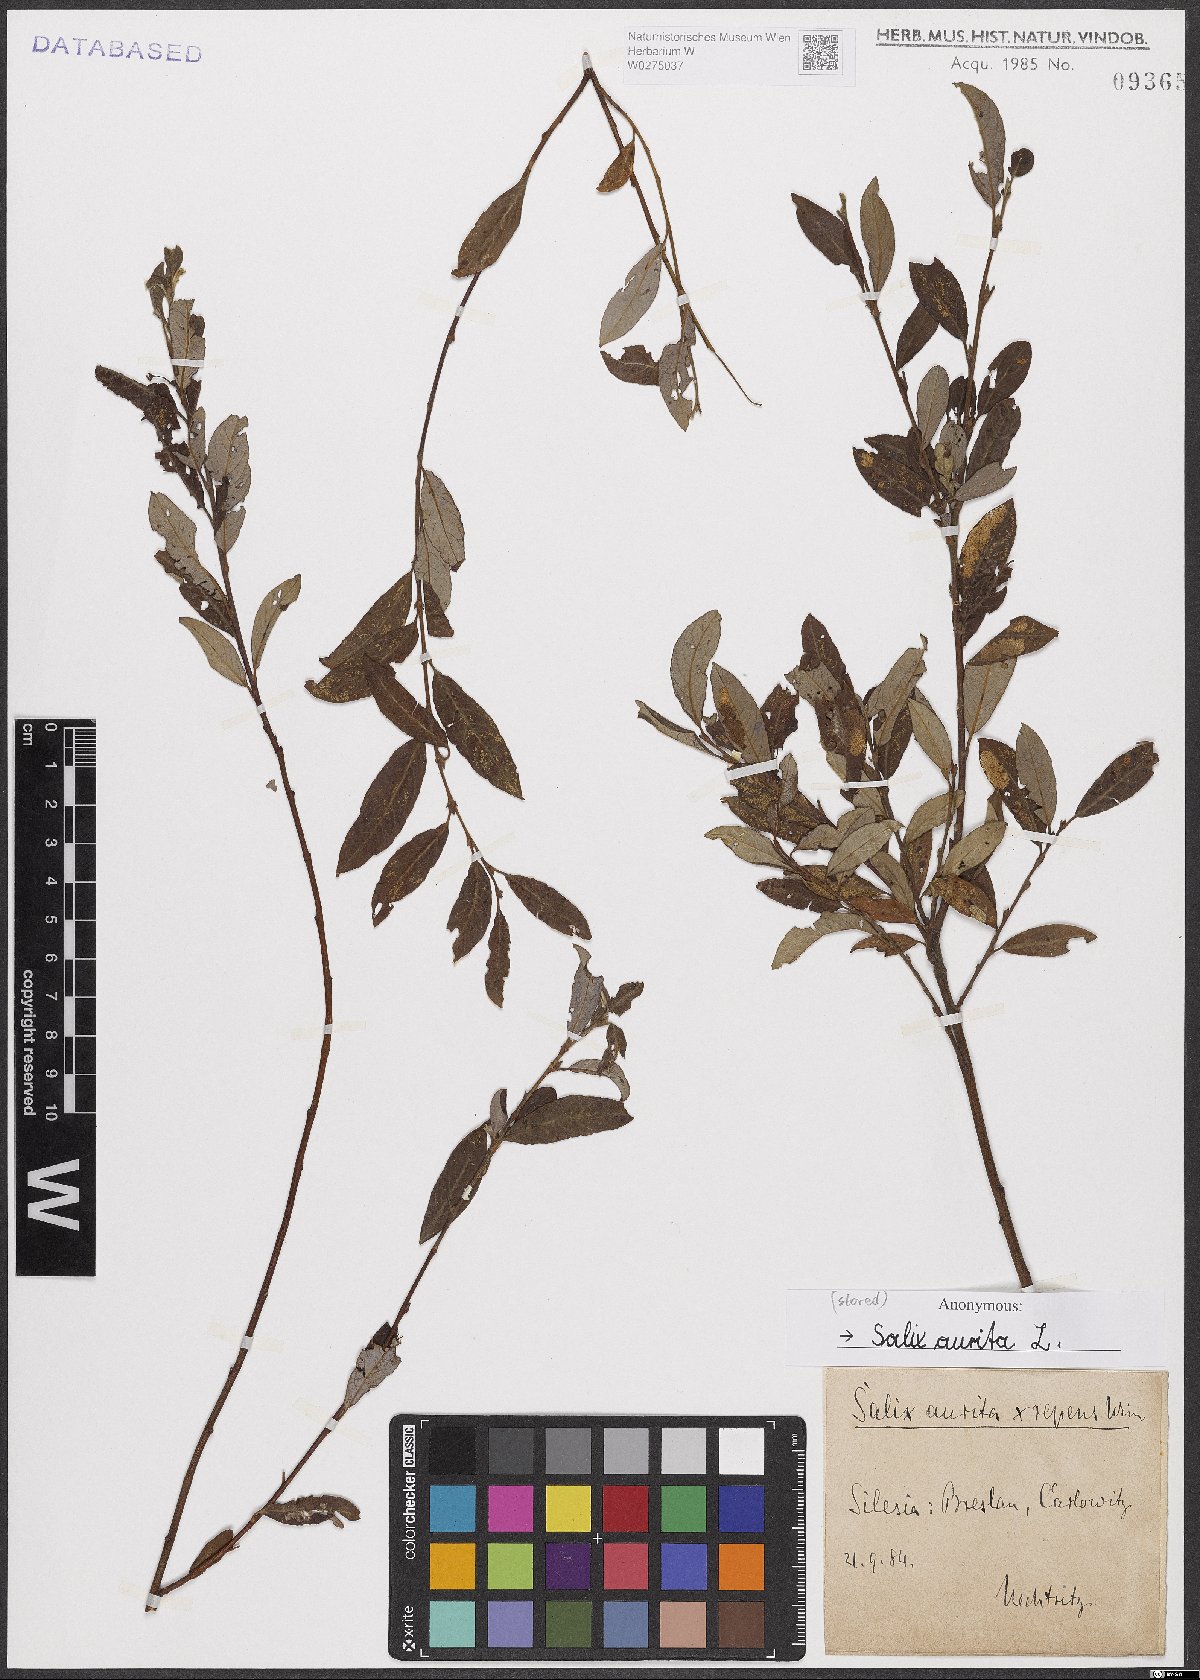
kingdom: Plantae
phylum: Tracheophyta
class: Magnoliopsida
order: Malpighiales
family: Salicaceae
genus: Salix
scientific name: Salix aurita
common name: Eared willow
